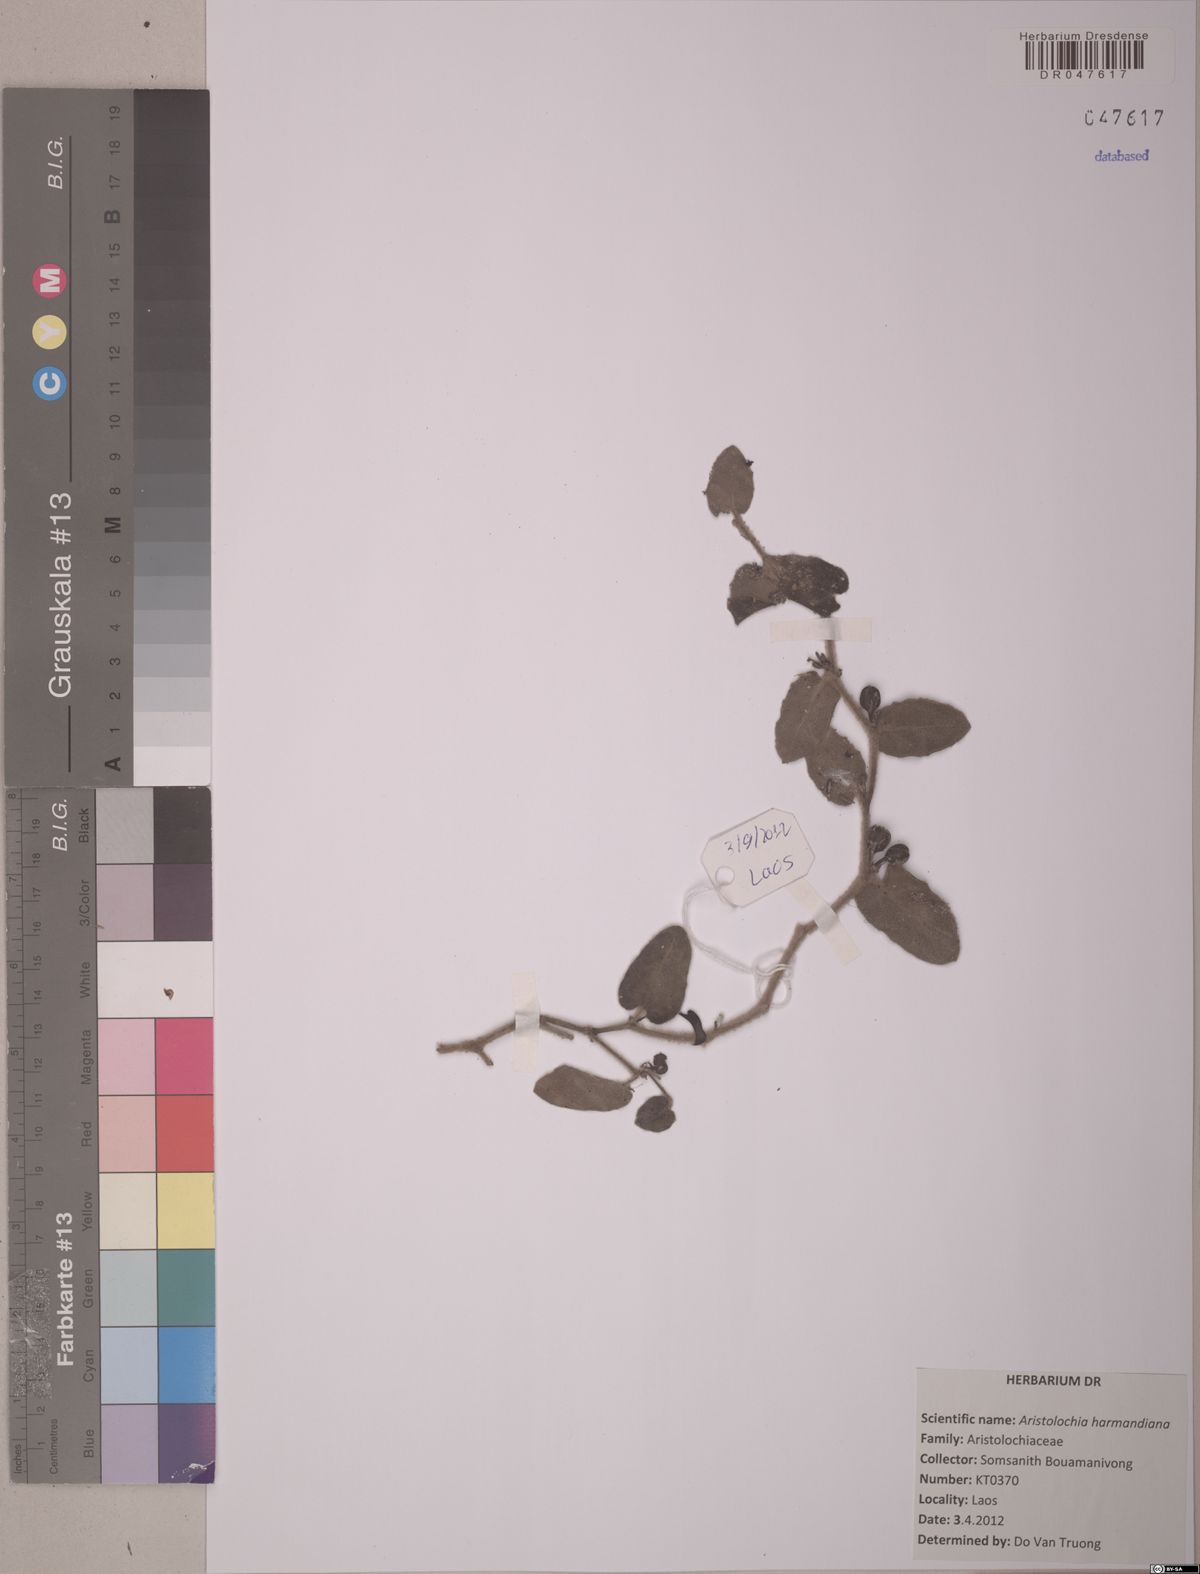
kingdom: Plantae
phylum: Tracheophyta
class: Magnoliopsida
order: Piperales
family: Aristolochiaceae
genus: Aristolochia
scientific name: Aristolochia harmandiana
